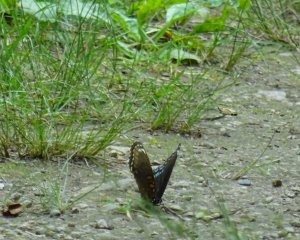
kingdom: Animalia
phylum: Arthropoda
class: Insecta
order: Lepidoptera
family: Nymphalidae
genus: Limenitis
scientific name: Limenitis astyanax
